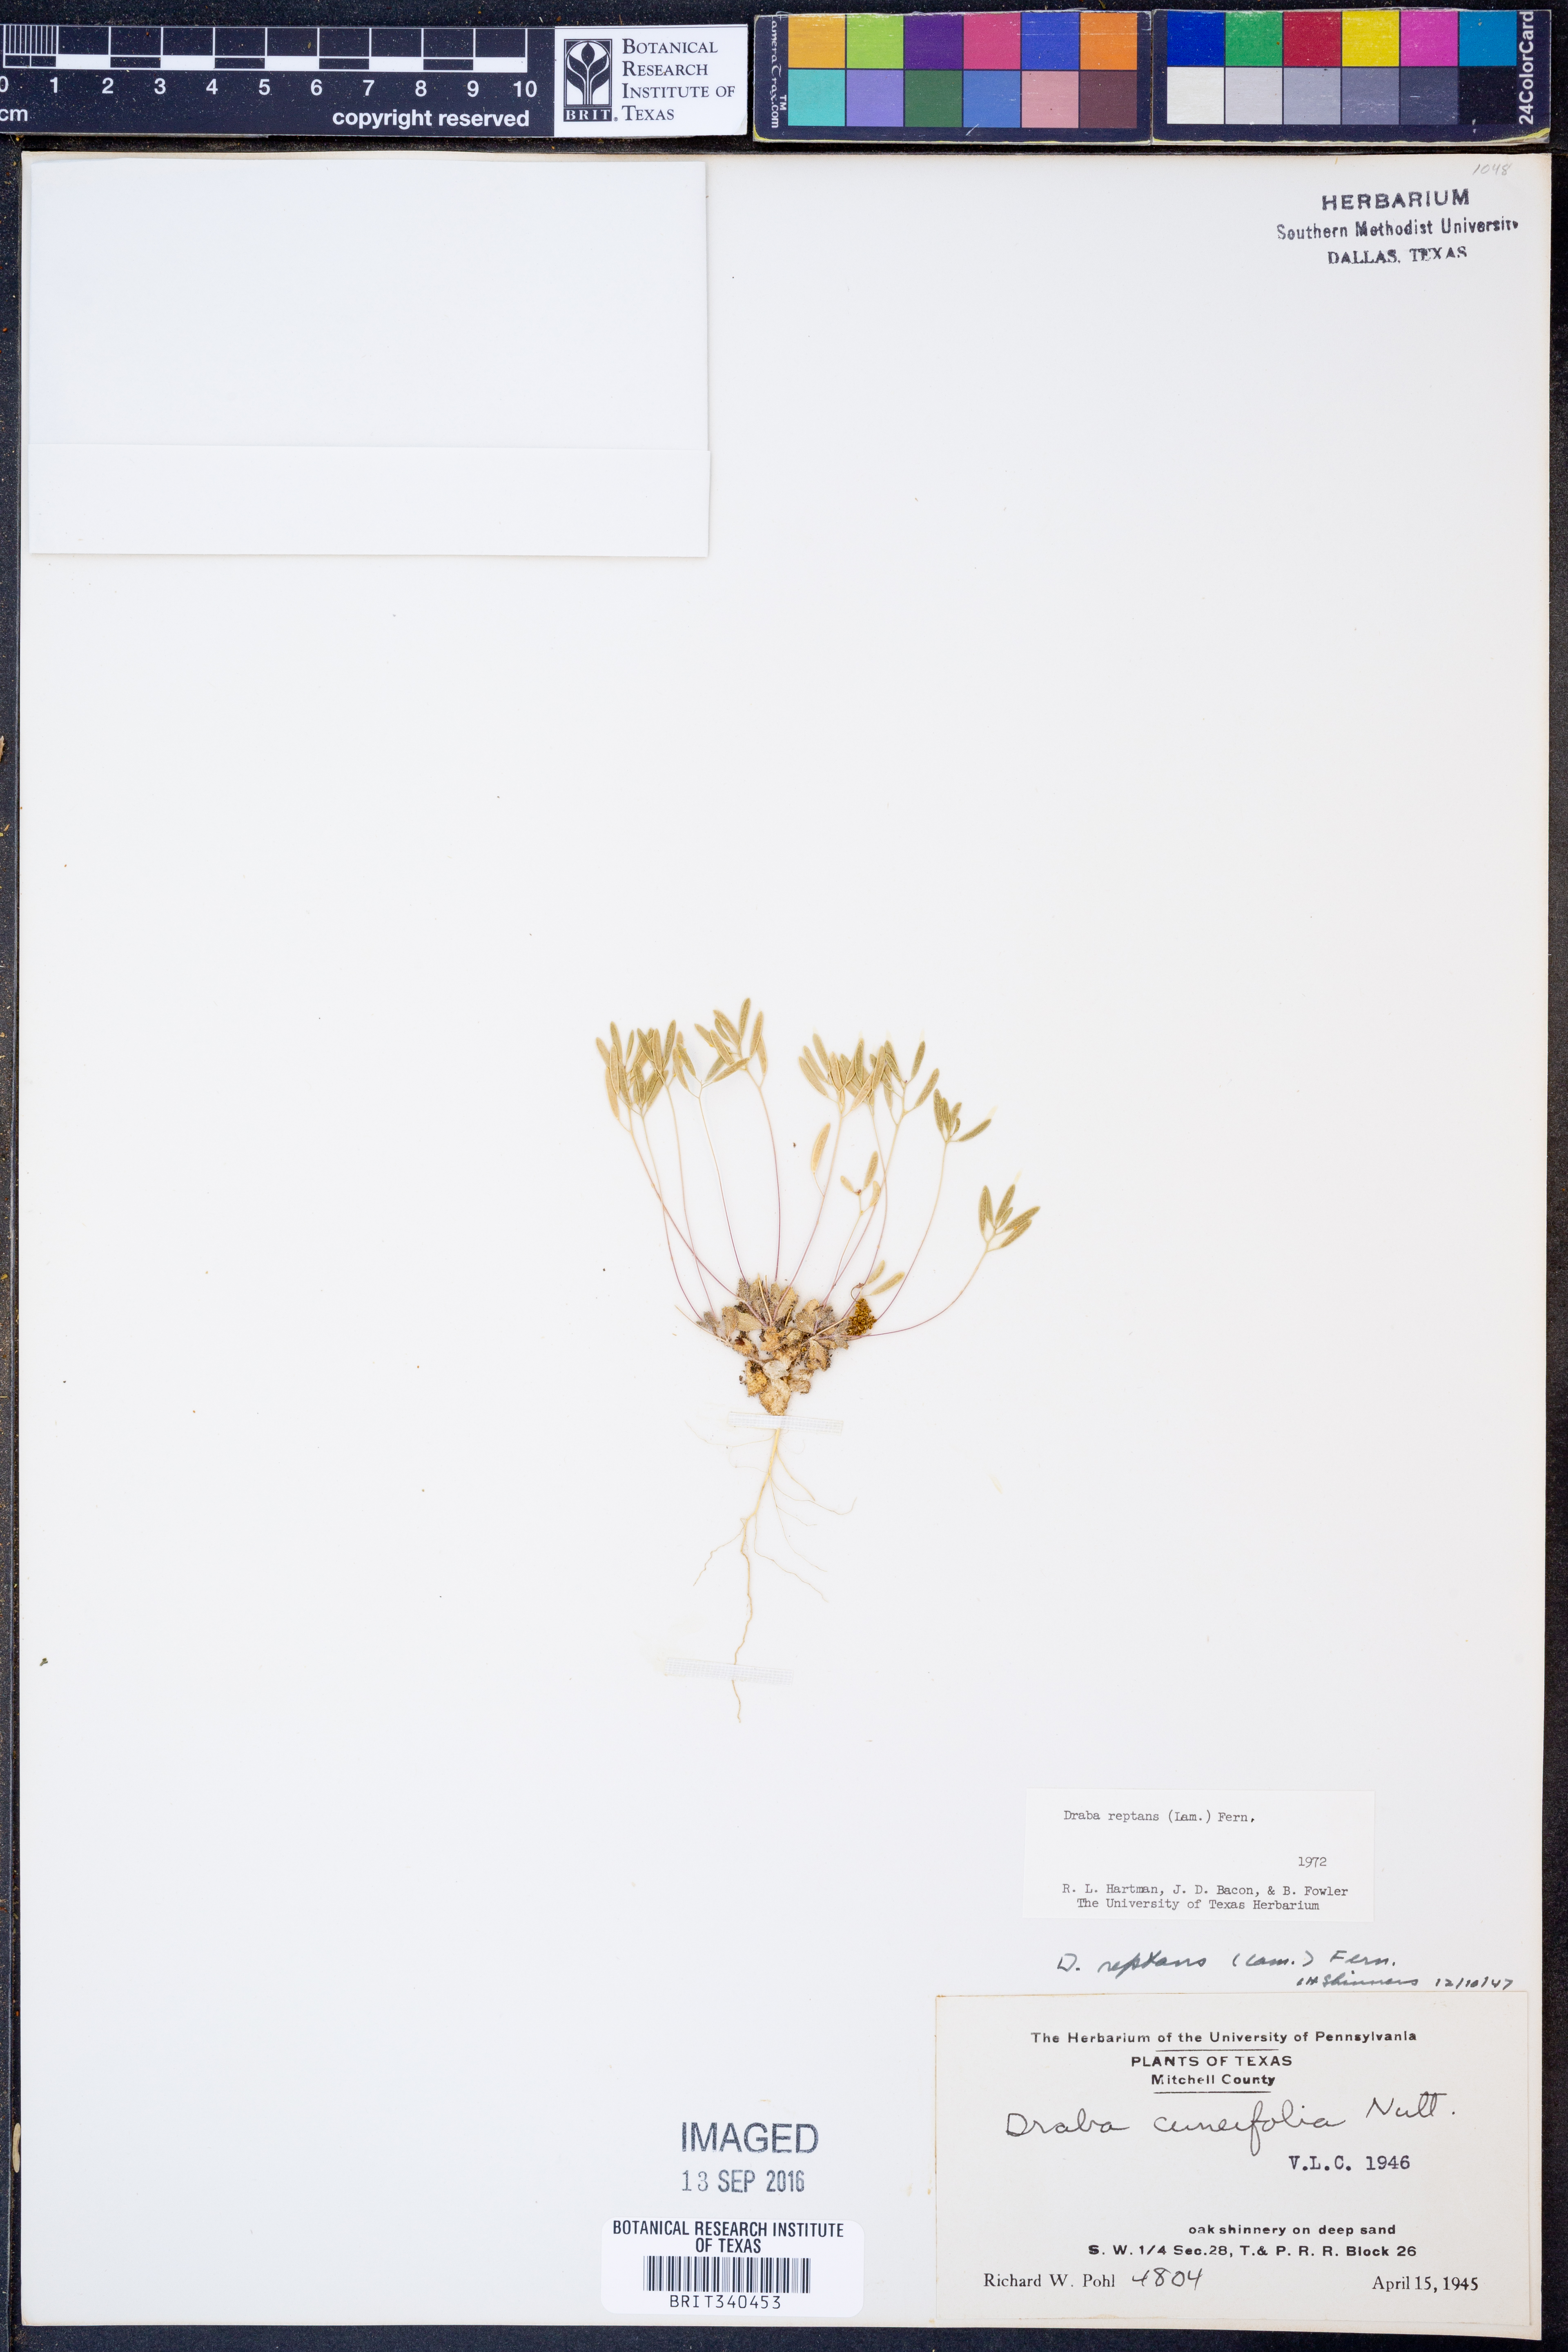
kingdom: Plantae
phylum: Tracheophyta
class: Magnoliopsida
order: Brassicales
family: Brassicaceae
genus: Tomostima
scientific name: Tomostima reptans
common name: Carolina draba
